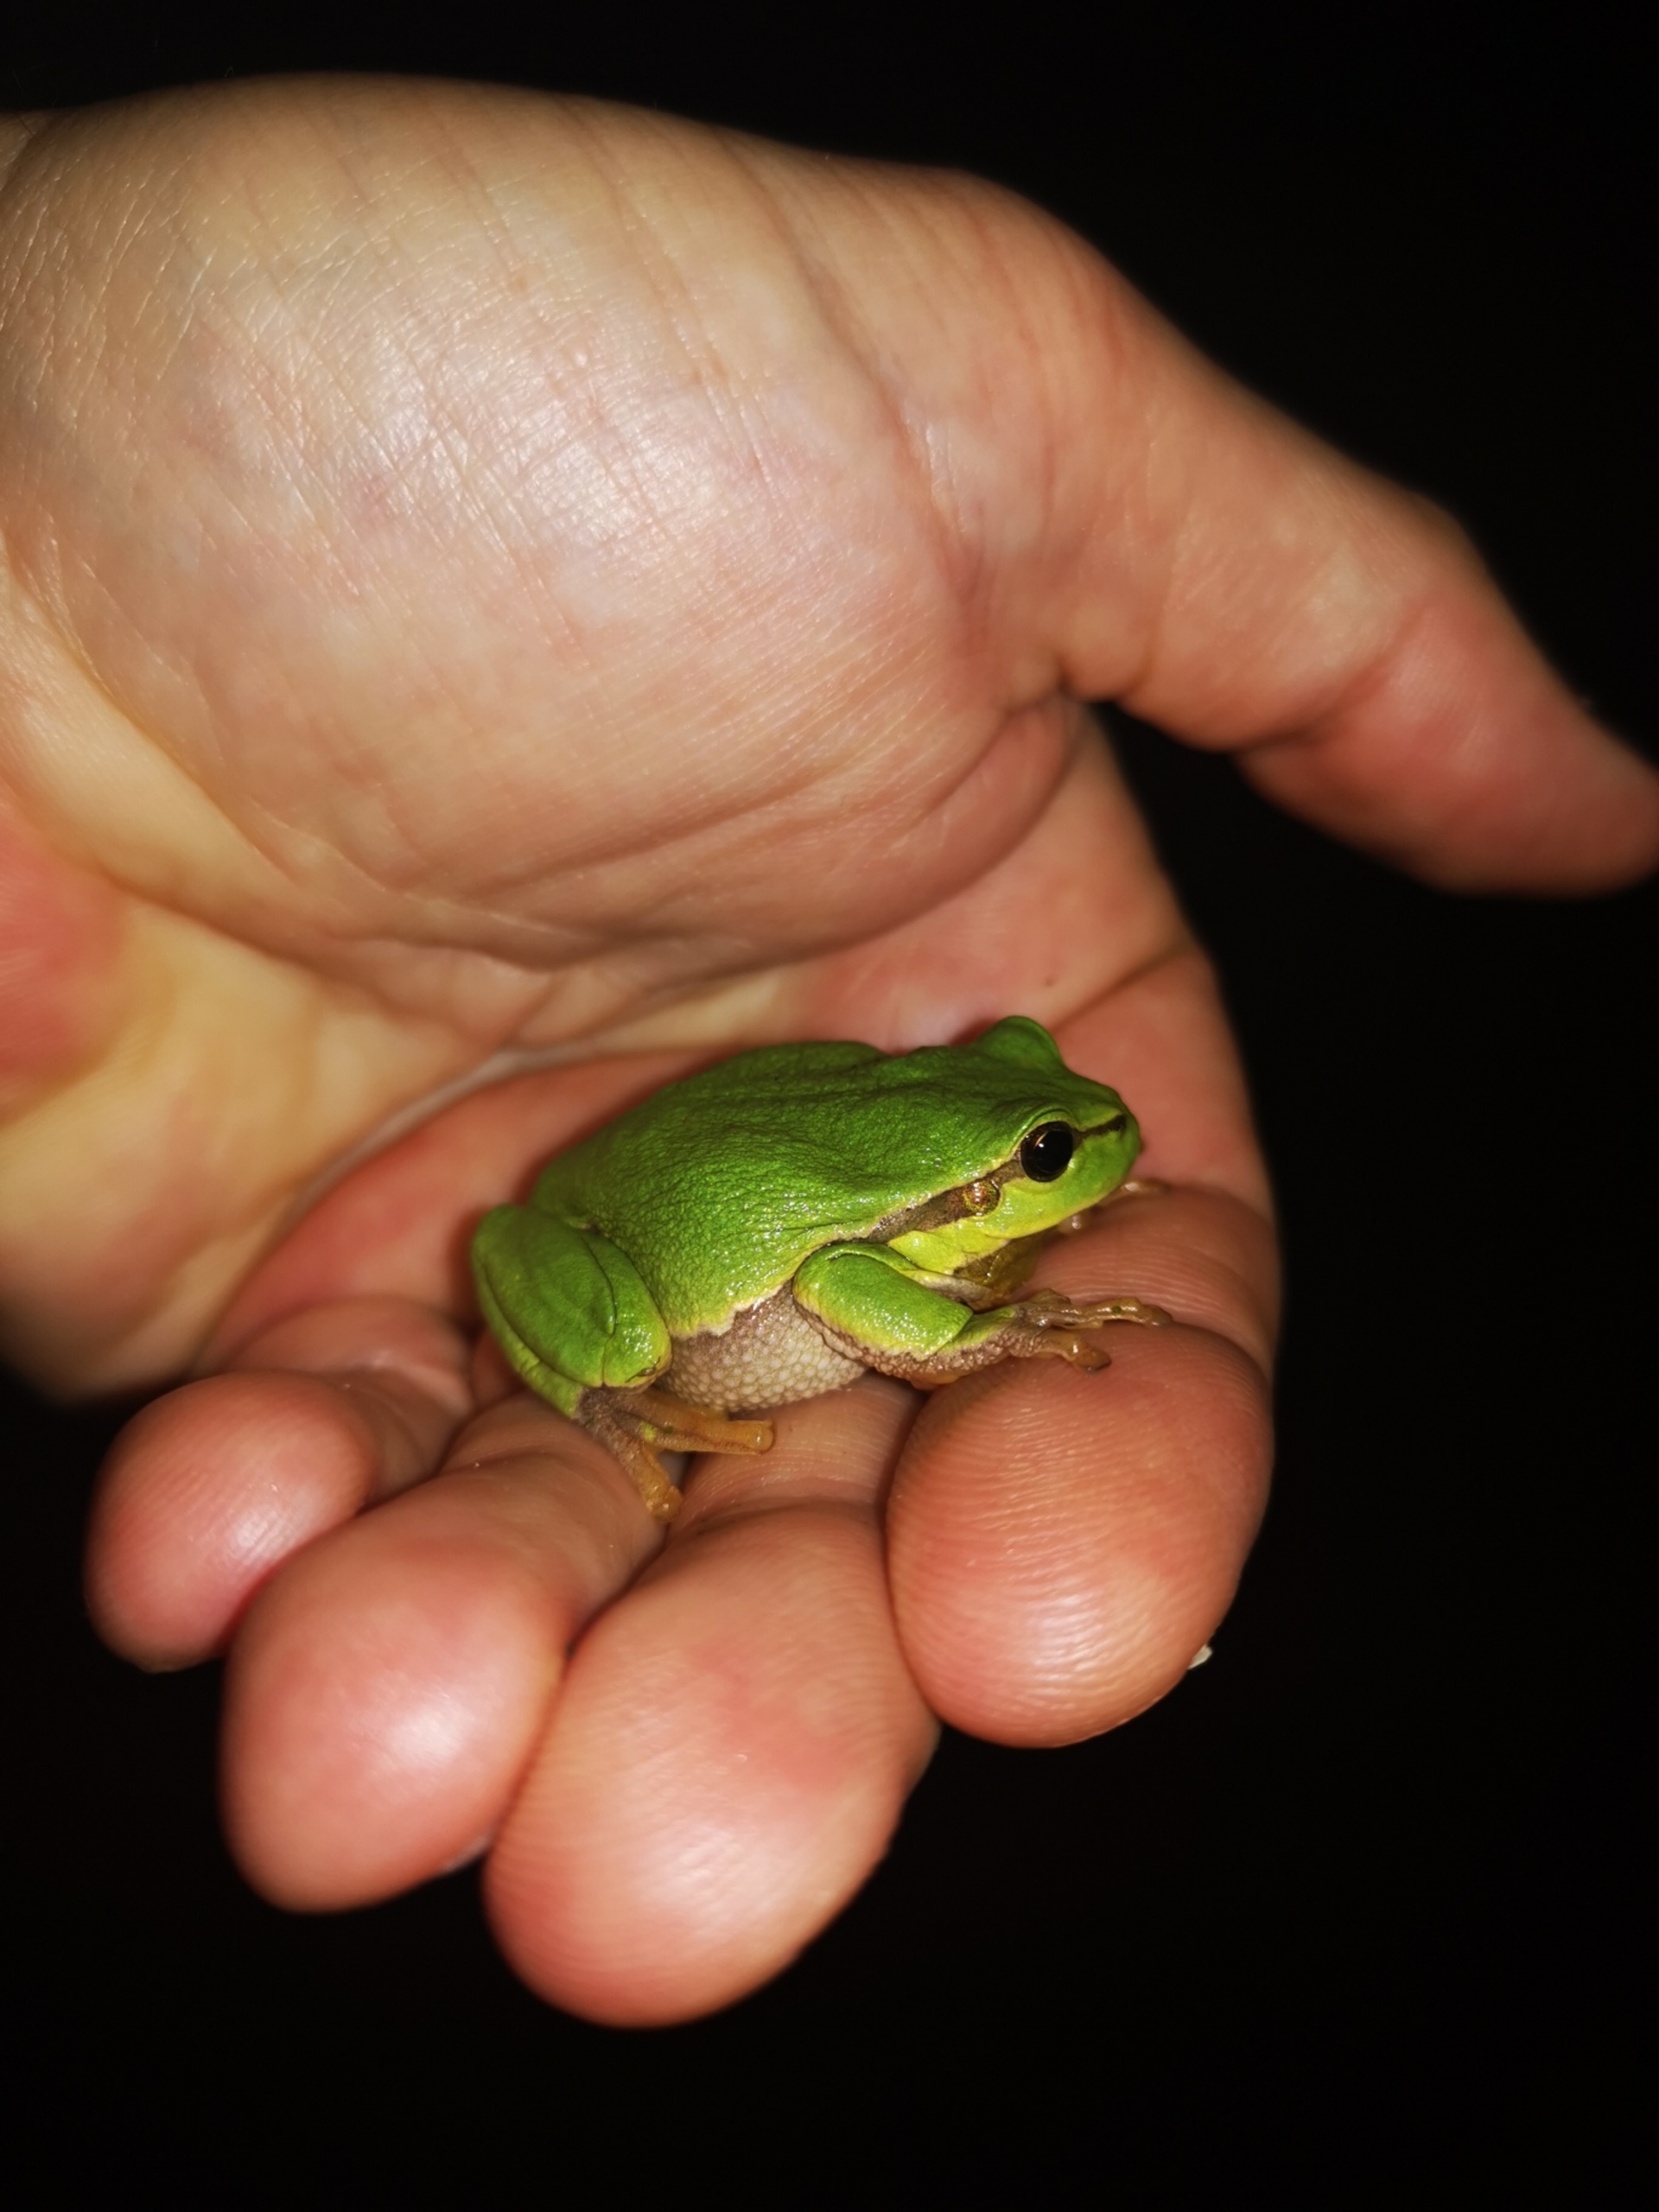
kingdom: Animalia
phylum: Chordata
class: Amphibia
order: Anura
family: Hylidae
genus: Hyla
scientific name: Hyla arborea
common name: Løvfrø
